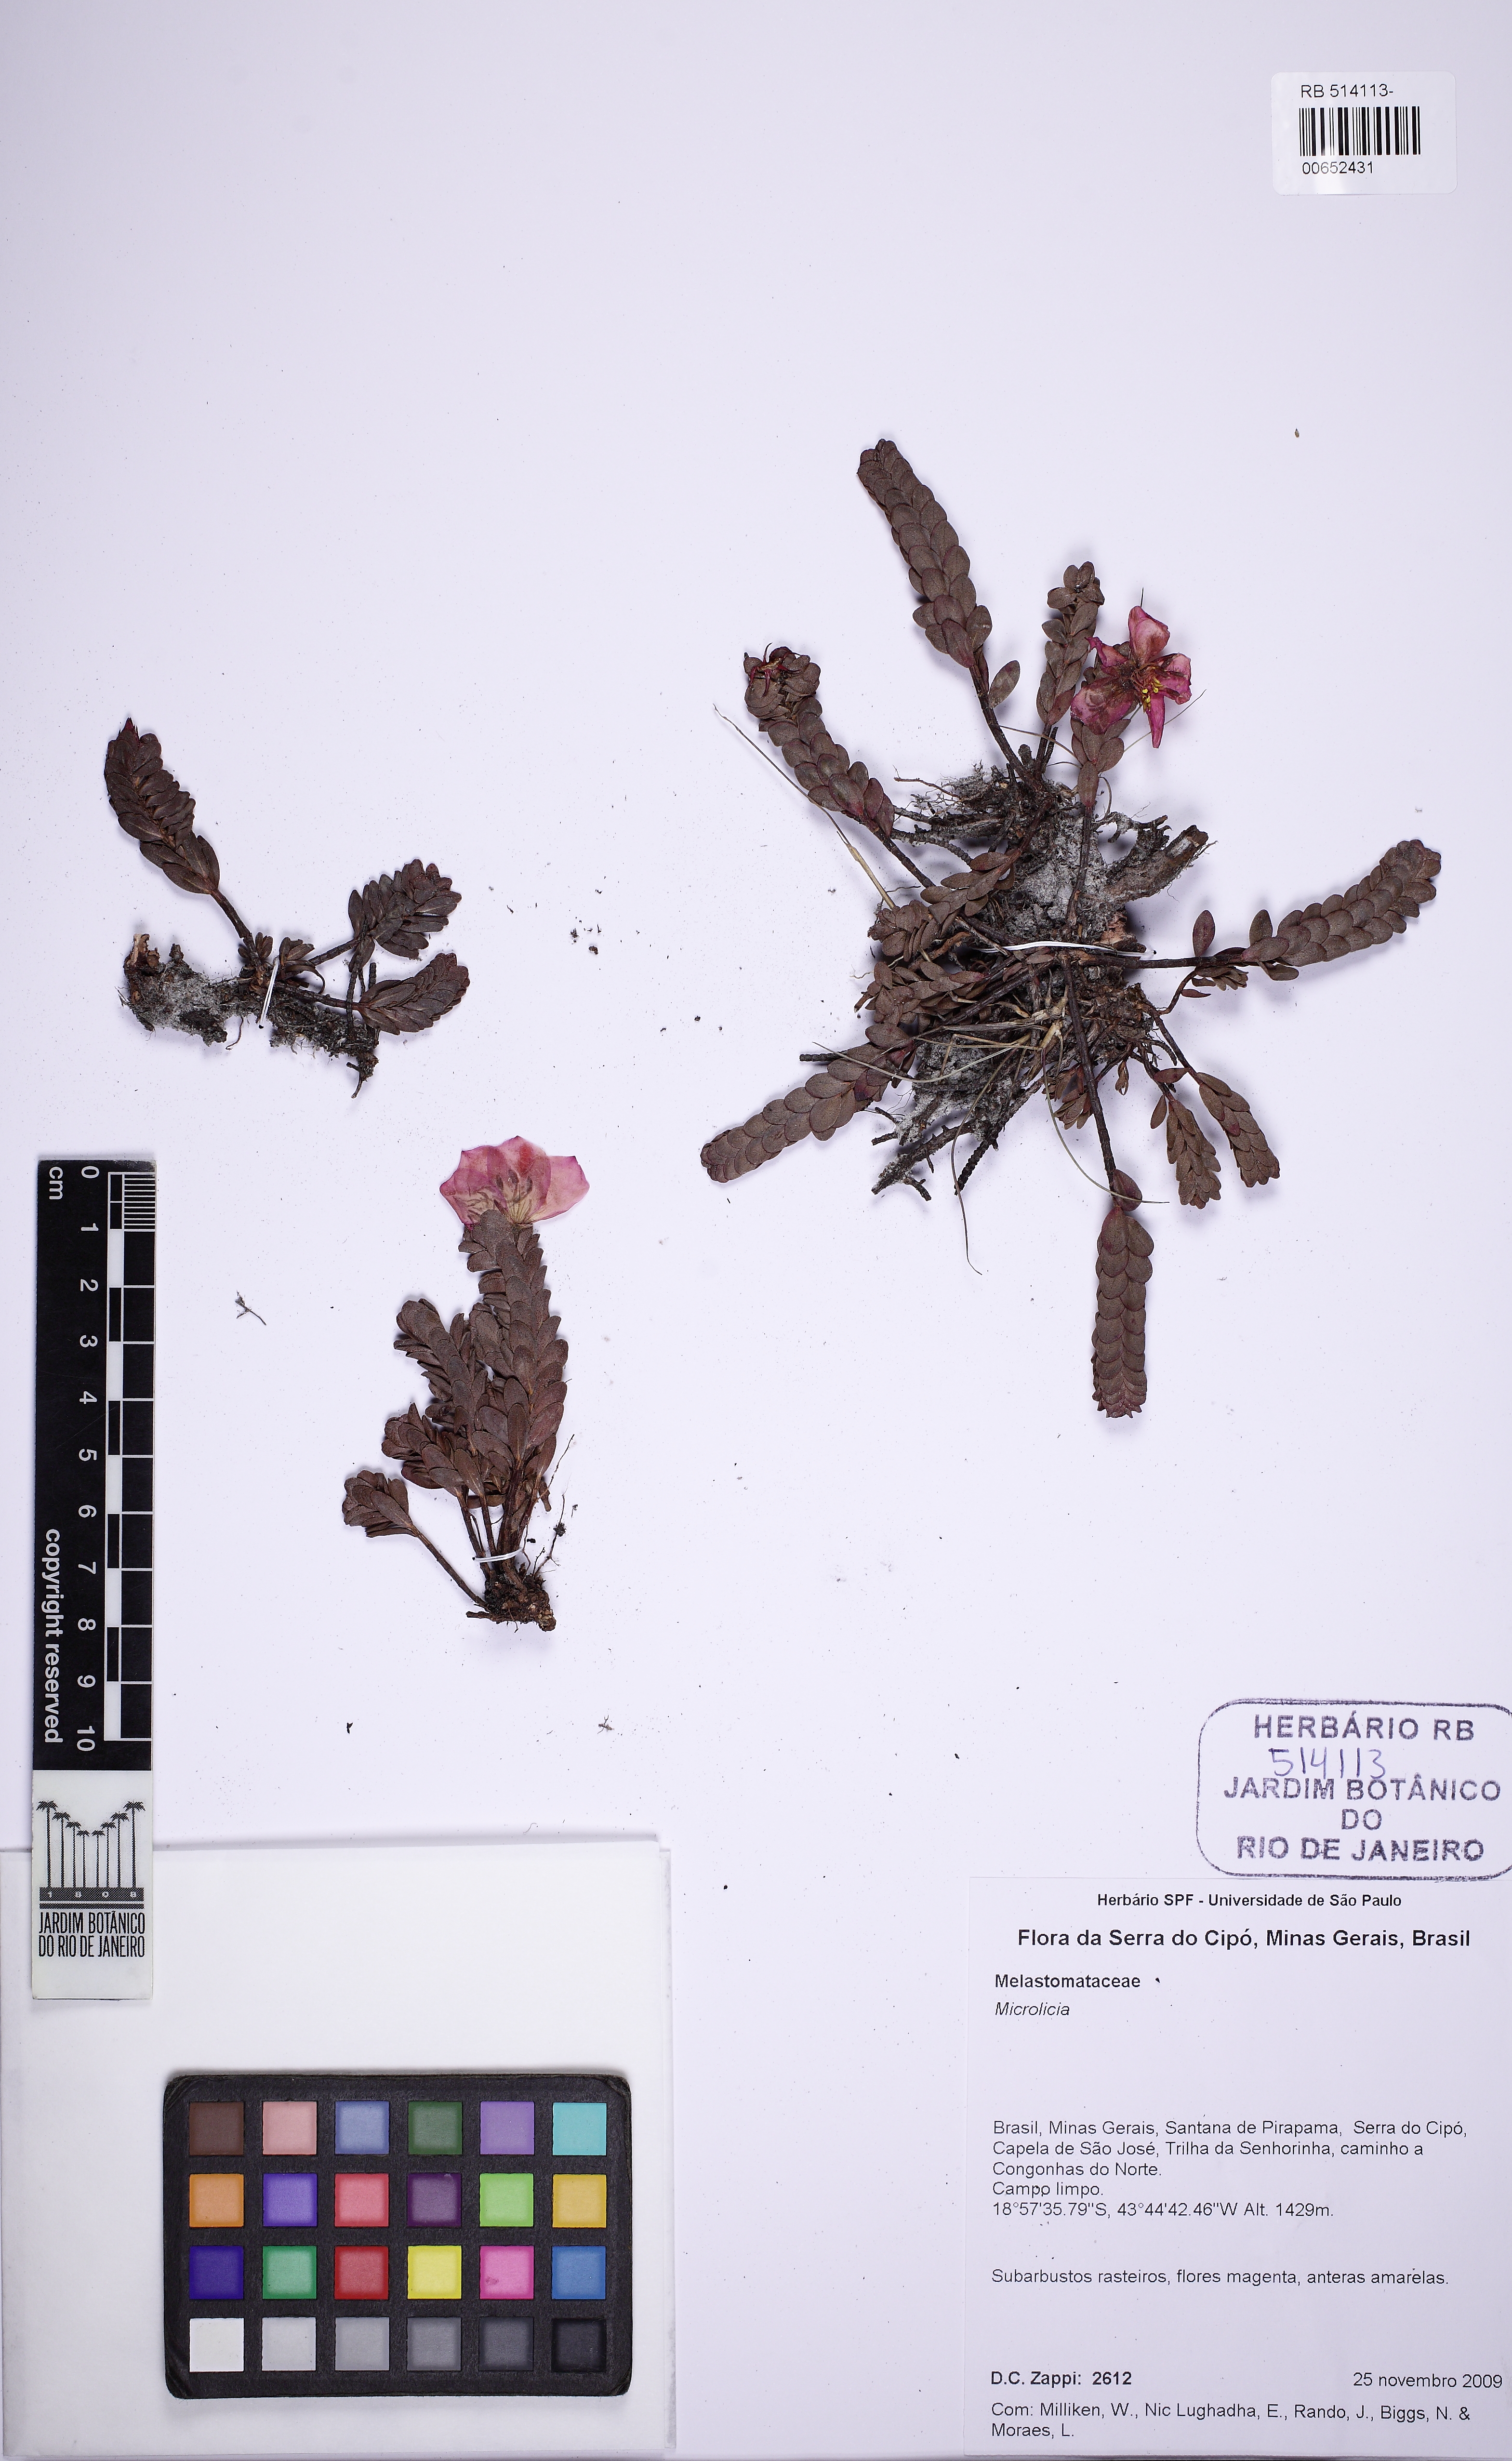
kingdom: Plantae
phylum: Tracheophyta
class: Magnoliopsida
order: Myrtales
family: Melastomataceae
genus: Microlicia
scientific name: Microlicia riedeliana
